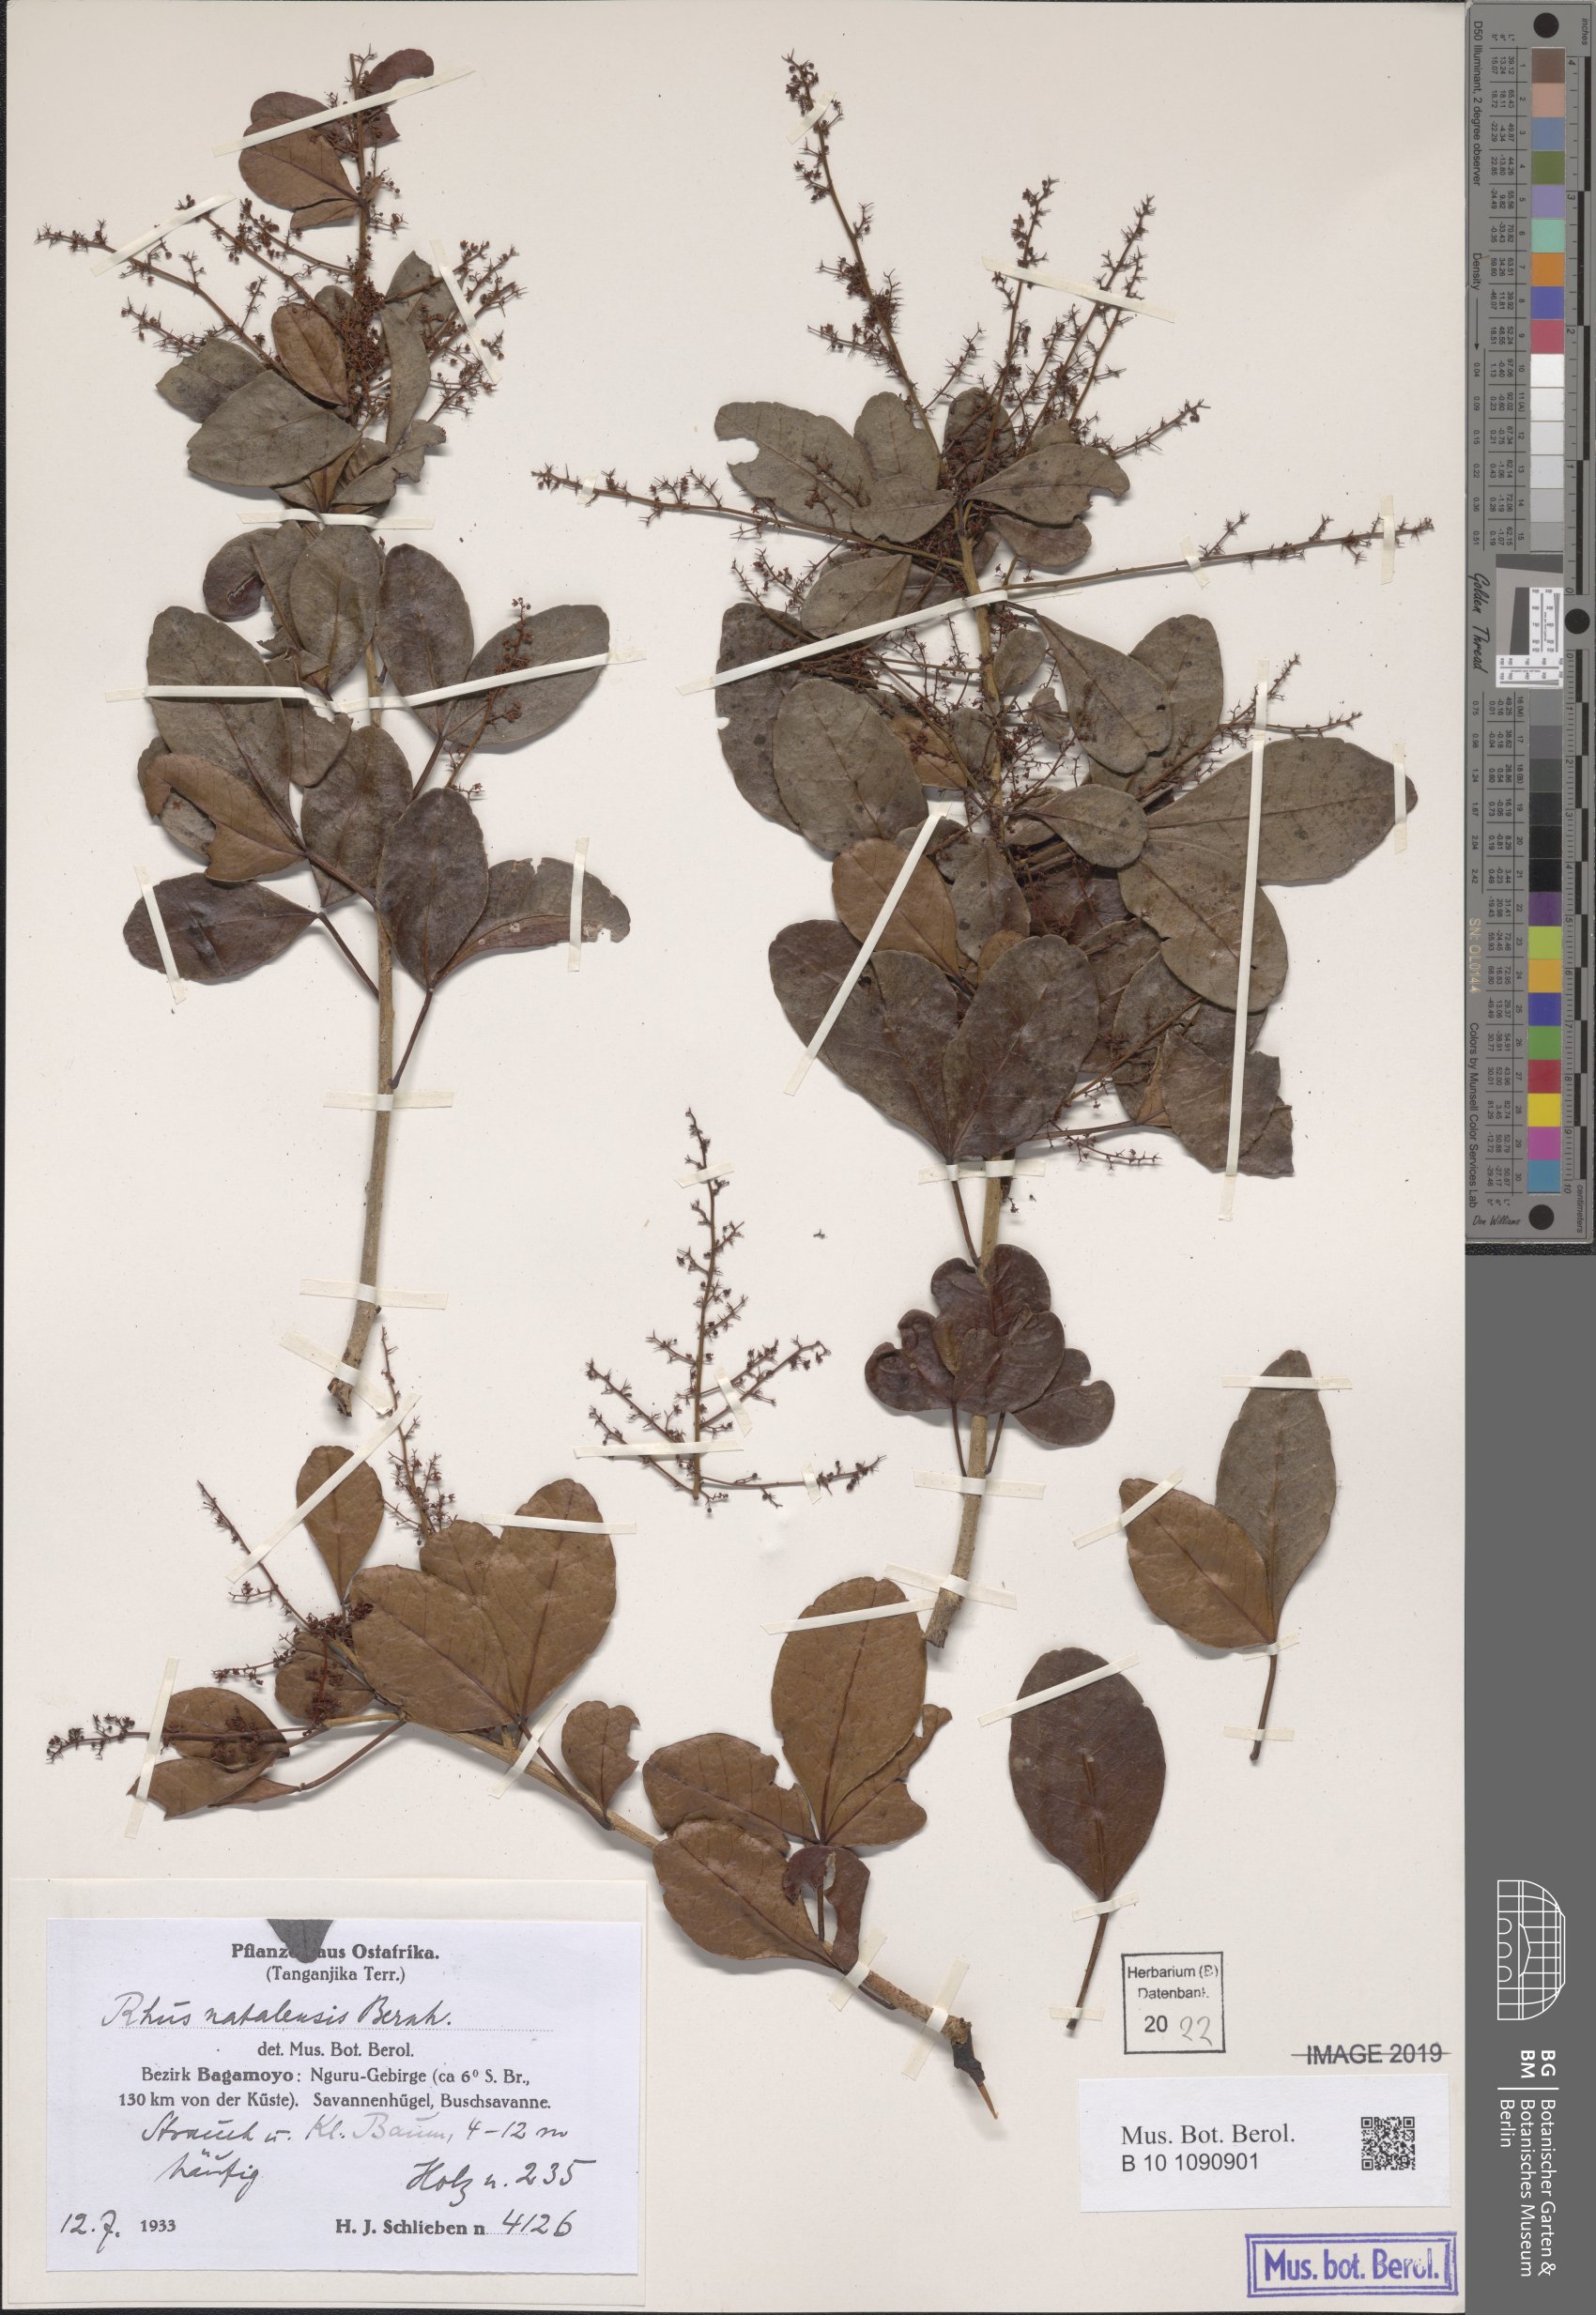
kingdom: Plantae
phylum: Tracheophyta
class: Magnoliopsida
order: Sapindales
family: Anacardiaceae
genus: Searsia
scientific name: Searsia natalensis
